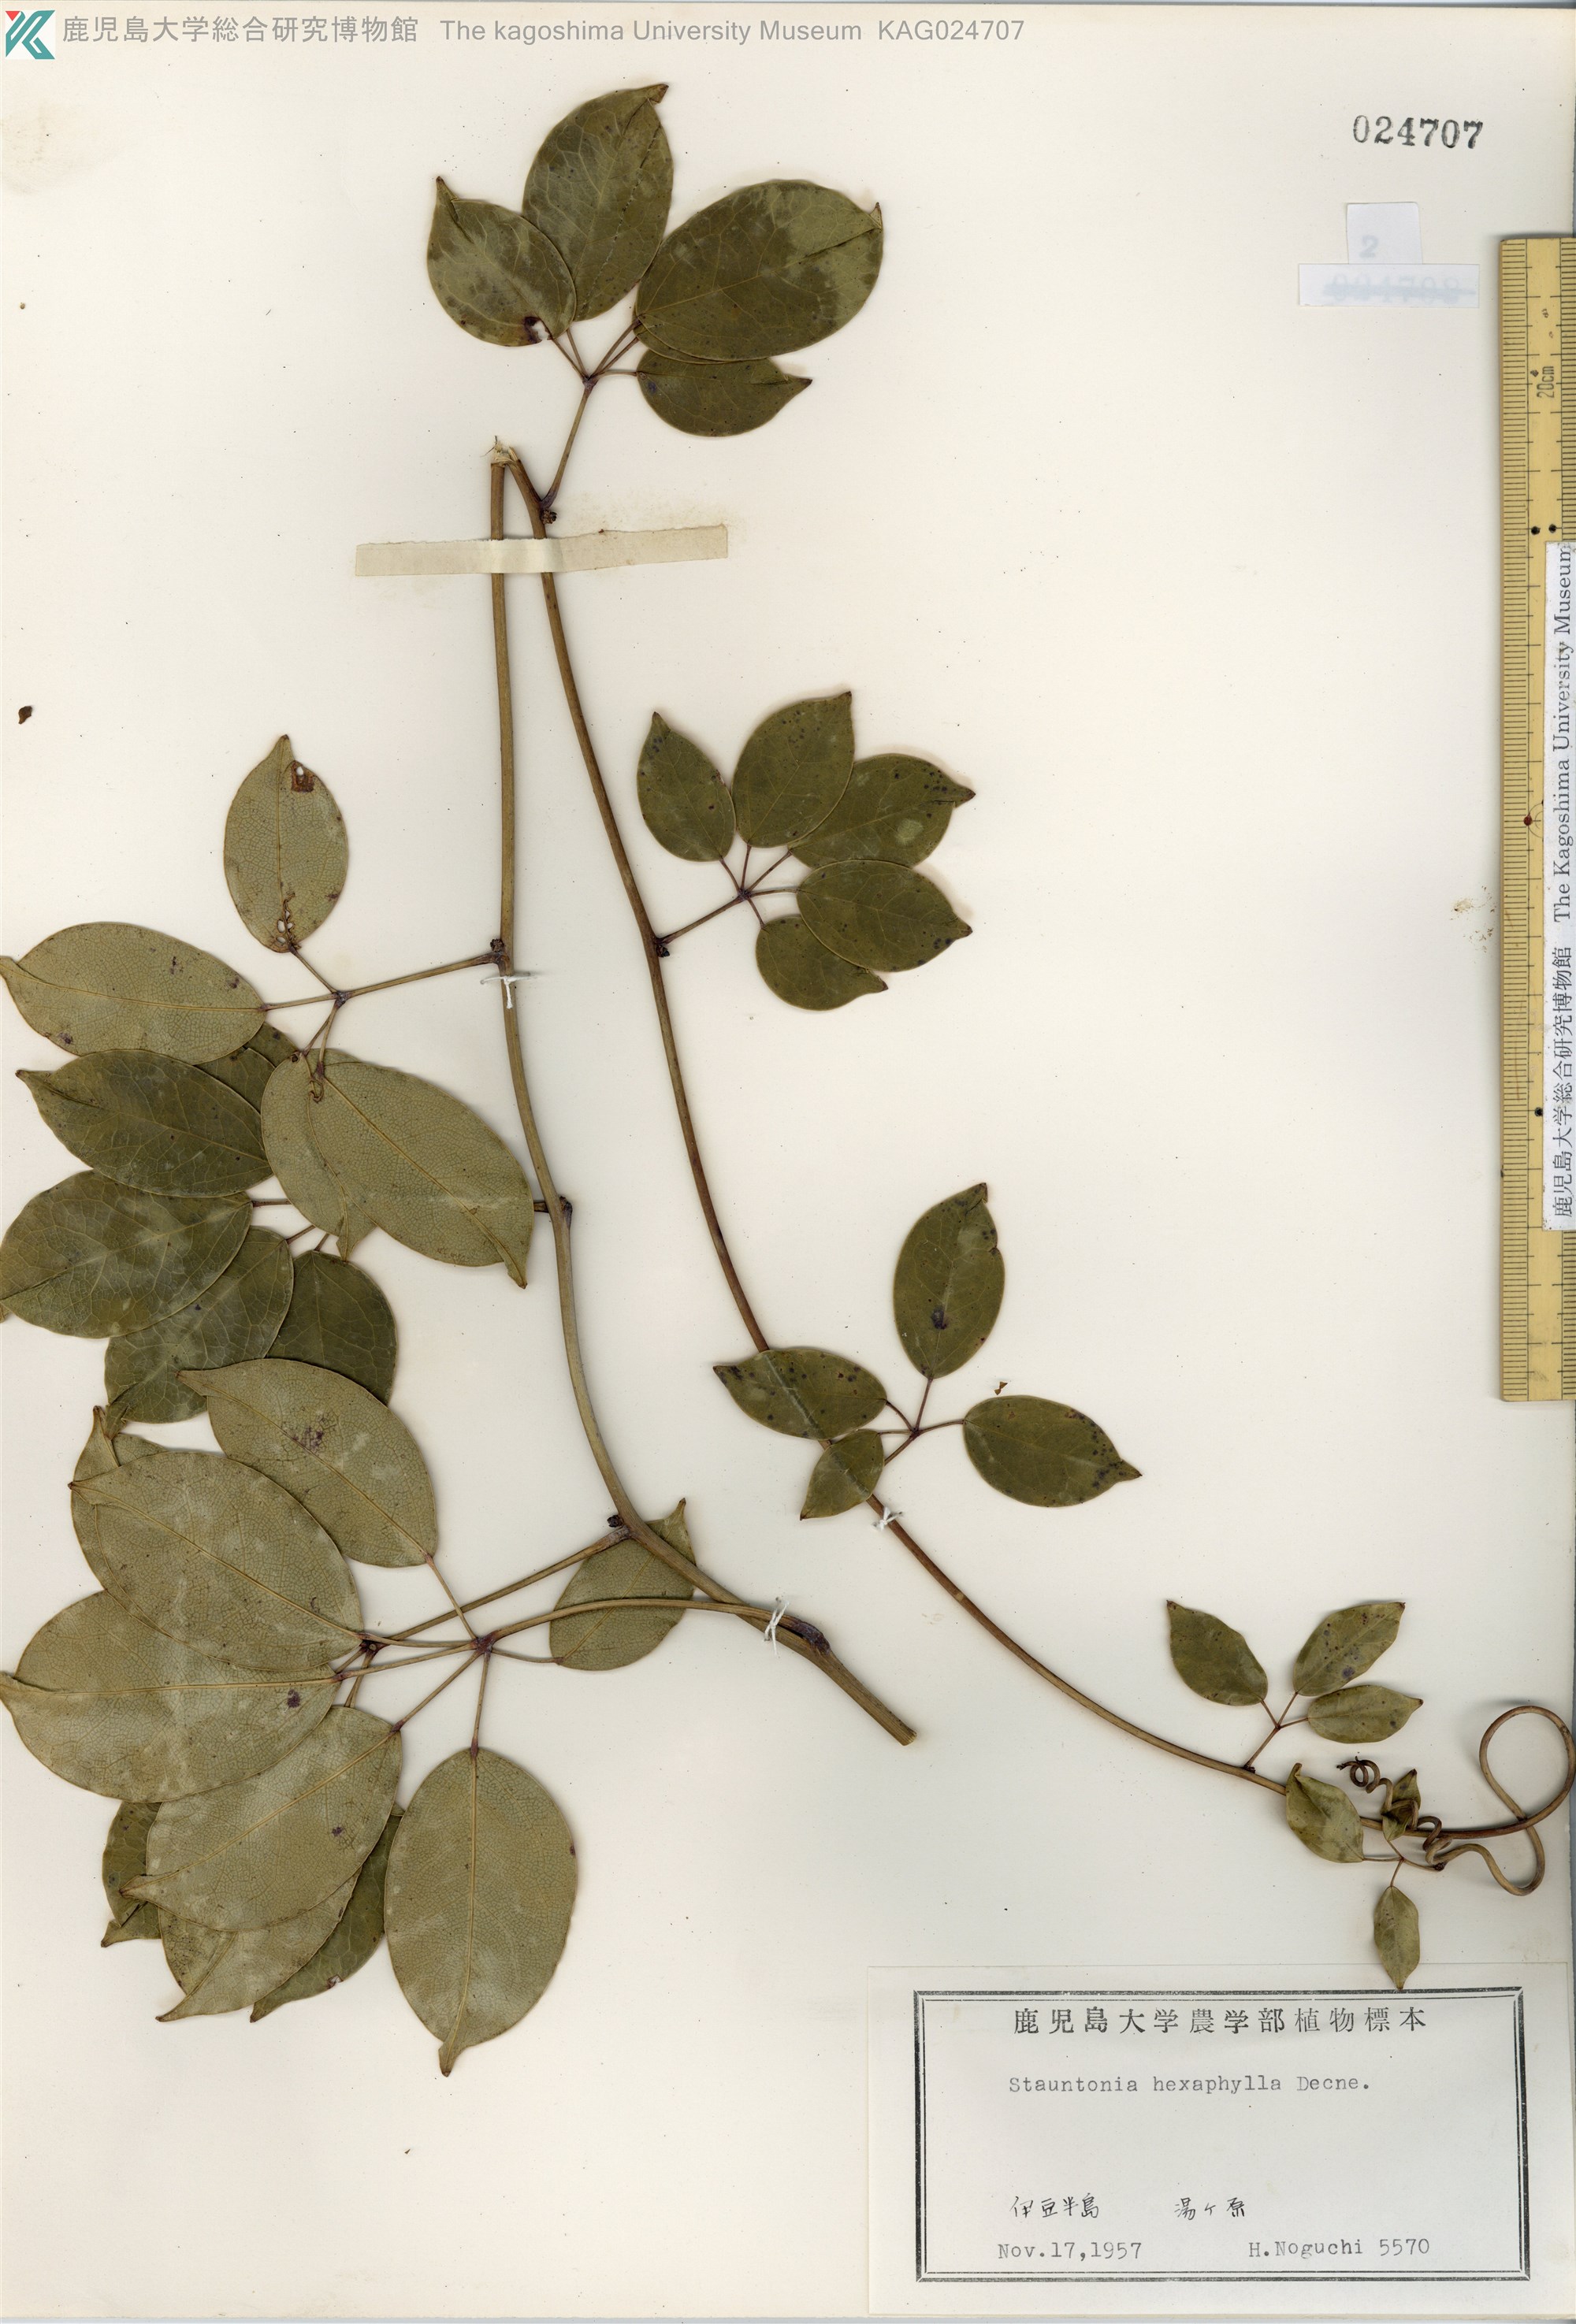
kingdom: Plantae
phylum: Tracheophyta
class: Magnoliopsida
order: Ranunculales
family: Lardizabalaceae
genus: Stauntonia
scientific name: Stauntonia hexaphylla
